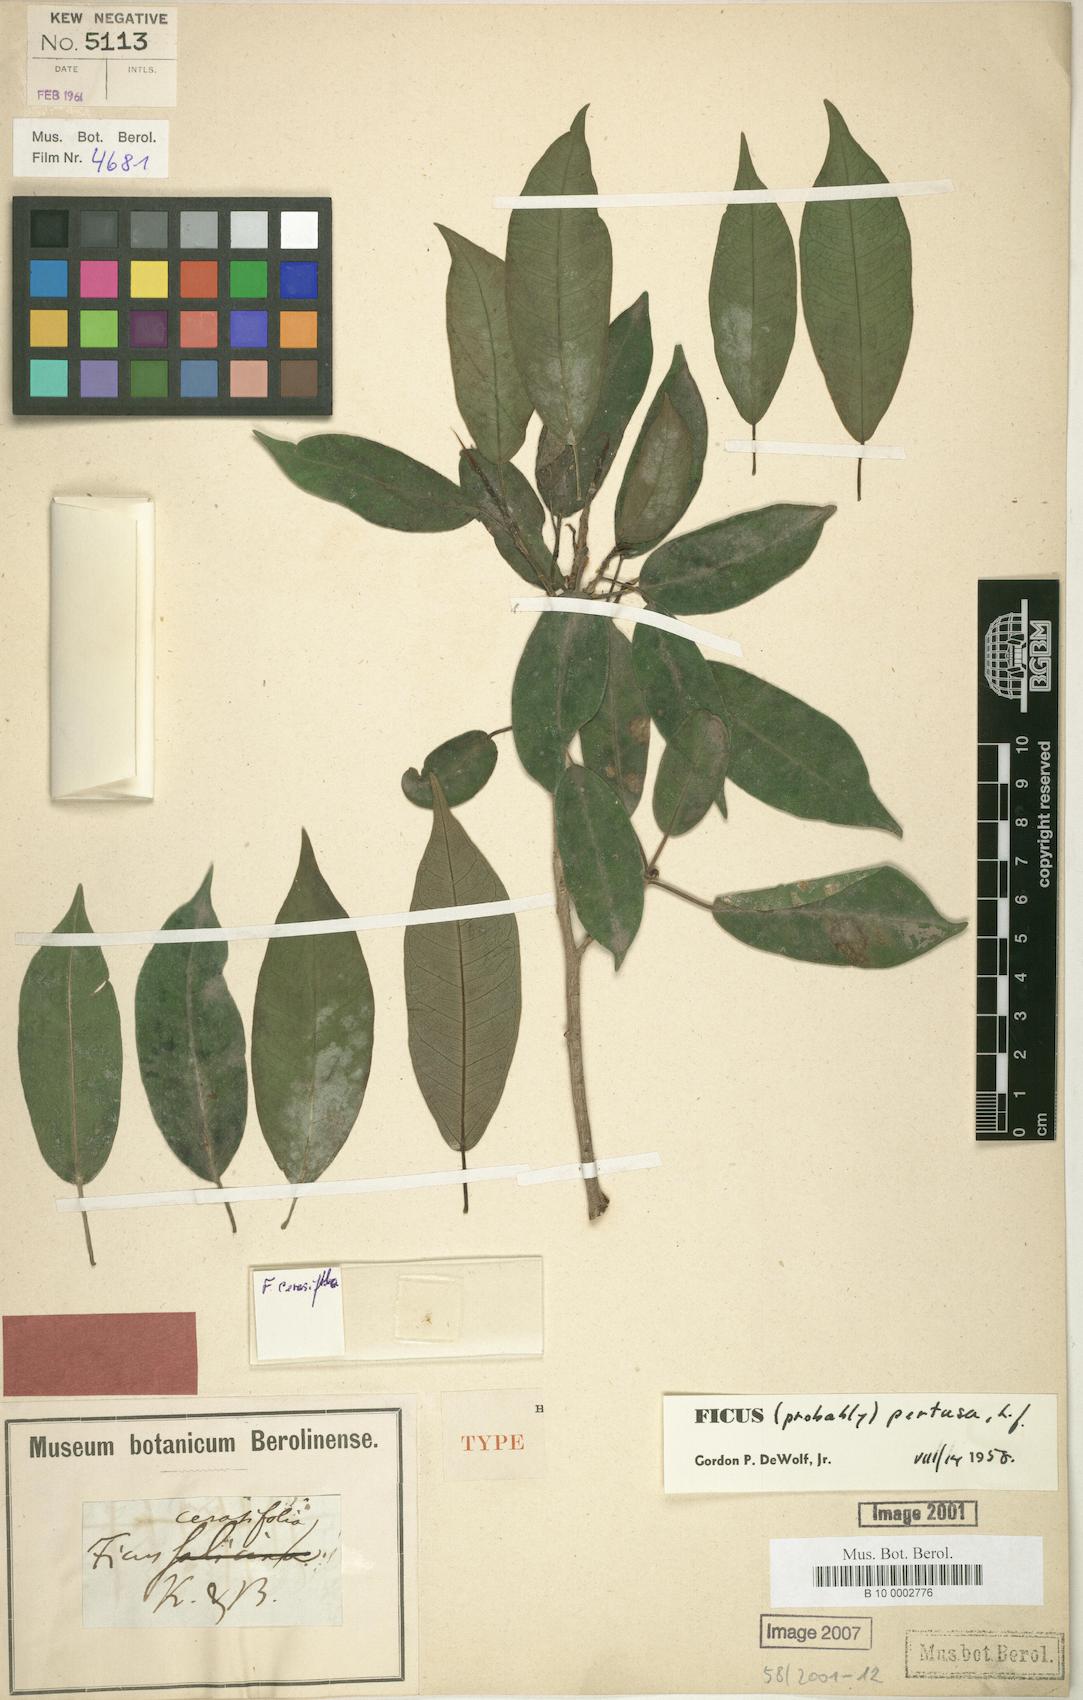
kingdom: Plantae
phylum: Tracheophyta
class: Magnoliopsida
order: Rosales
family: Moraceae
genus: Ficus
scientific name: Ficus pertusa
